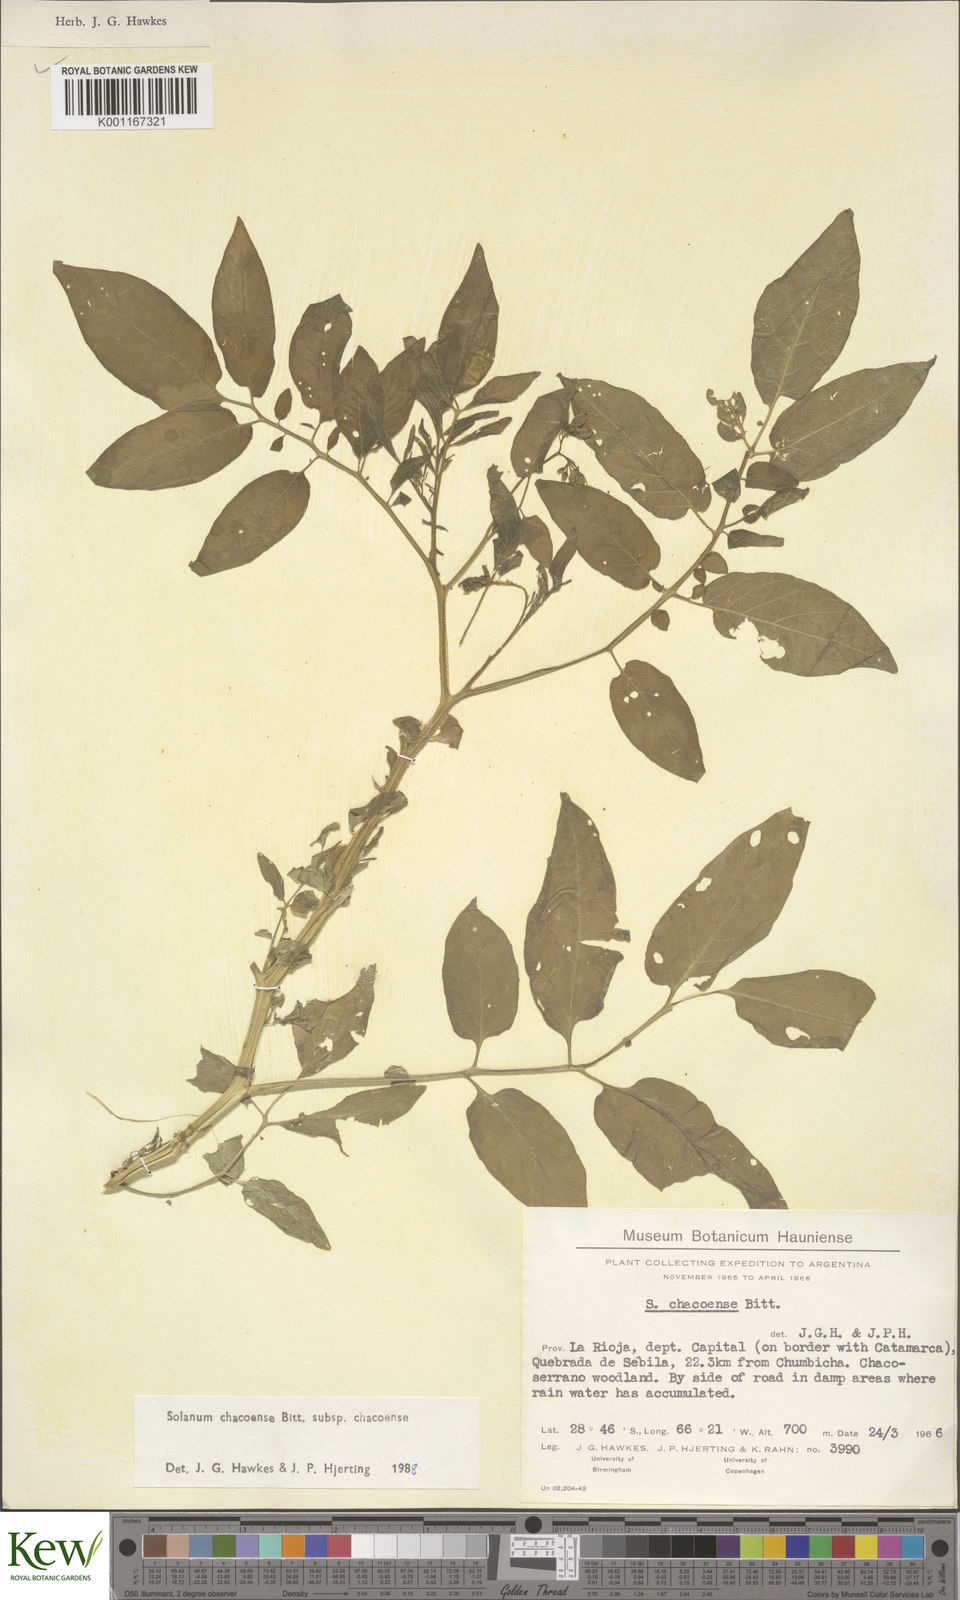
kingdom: Plantae
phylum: Tracheophyta
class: Magnoliopsida
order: Solanales
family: Solanaceae
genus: Solanum
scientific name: Solanum chacoense
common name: Chaco potato
